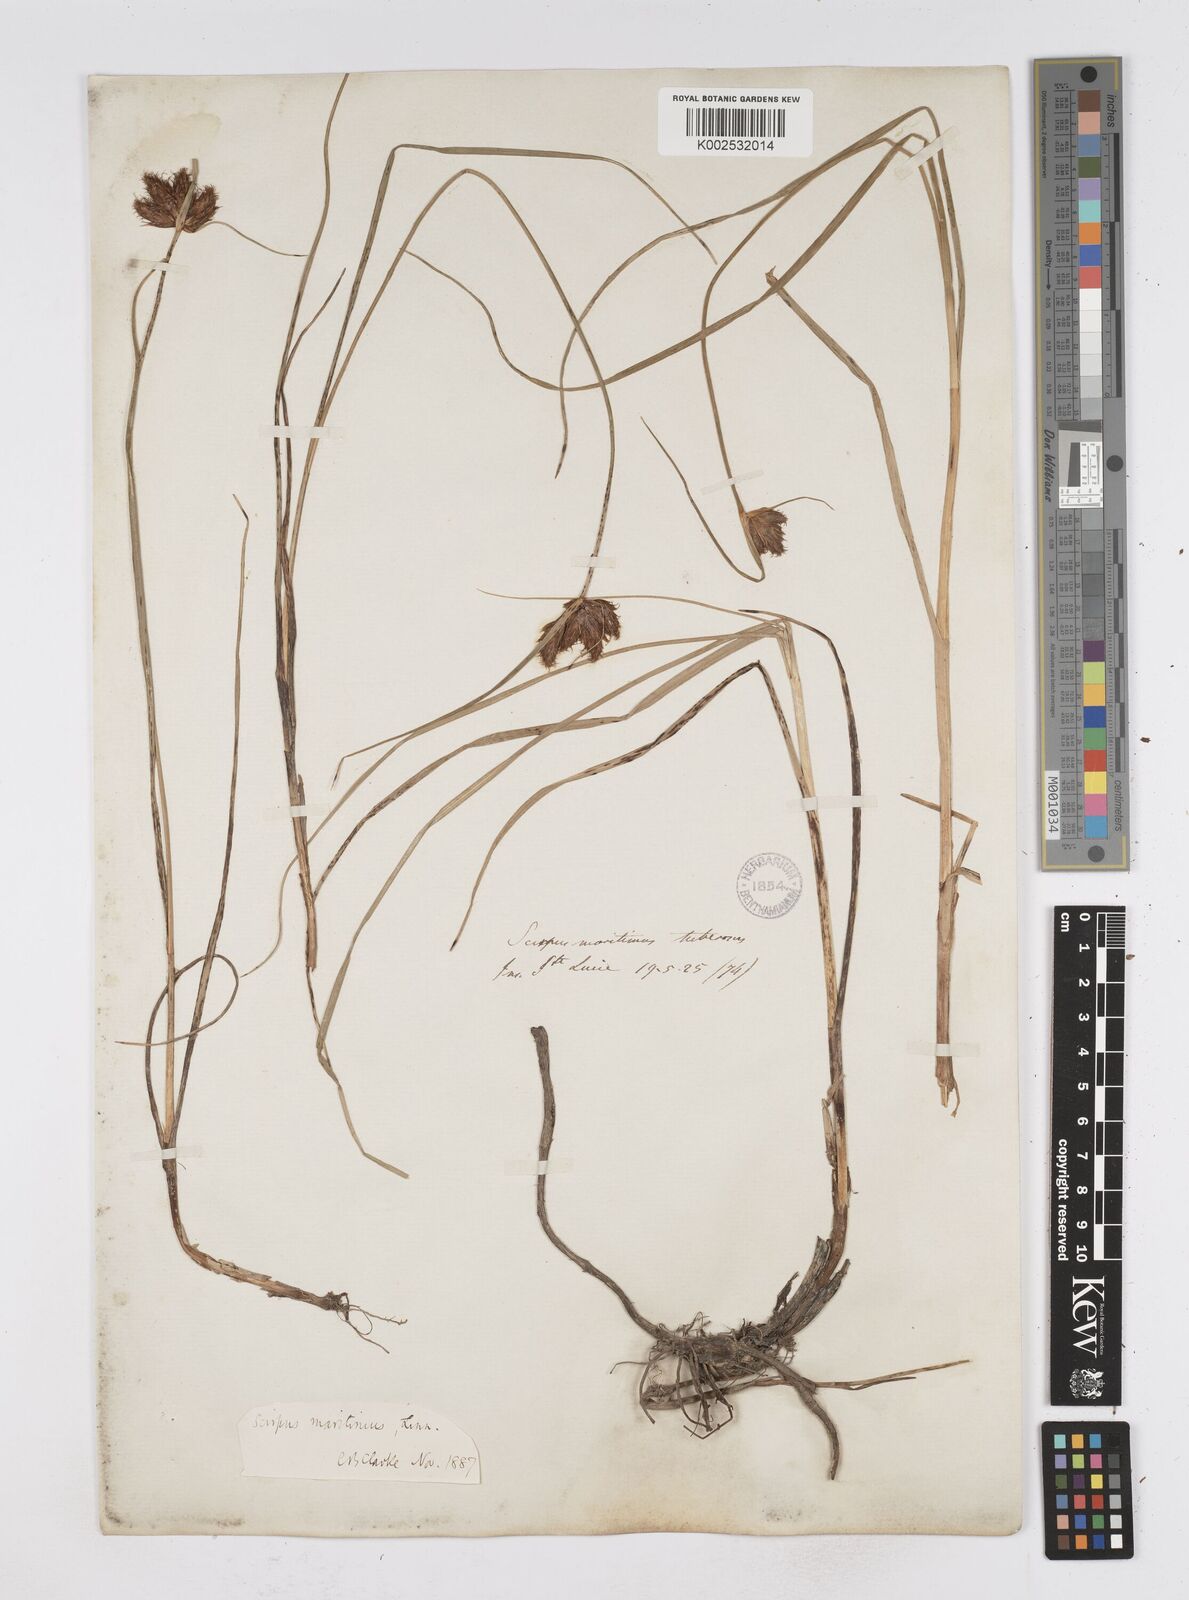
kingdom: Plantae
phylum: Tracheophyta
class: Liliopsida
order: Poales
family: Cyperaceae
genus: Bolboschoenus
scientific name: Bolboschoenus maritimus
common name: Sea club-rush
